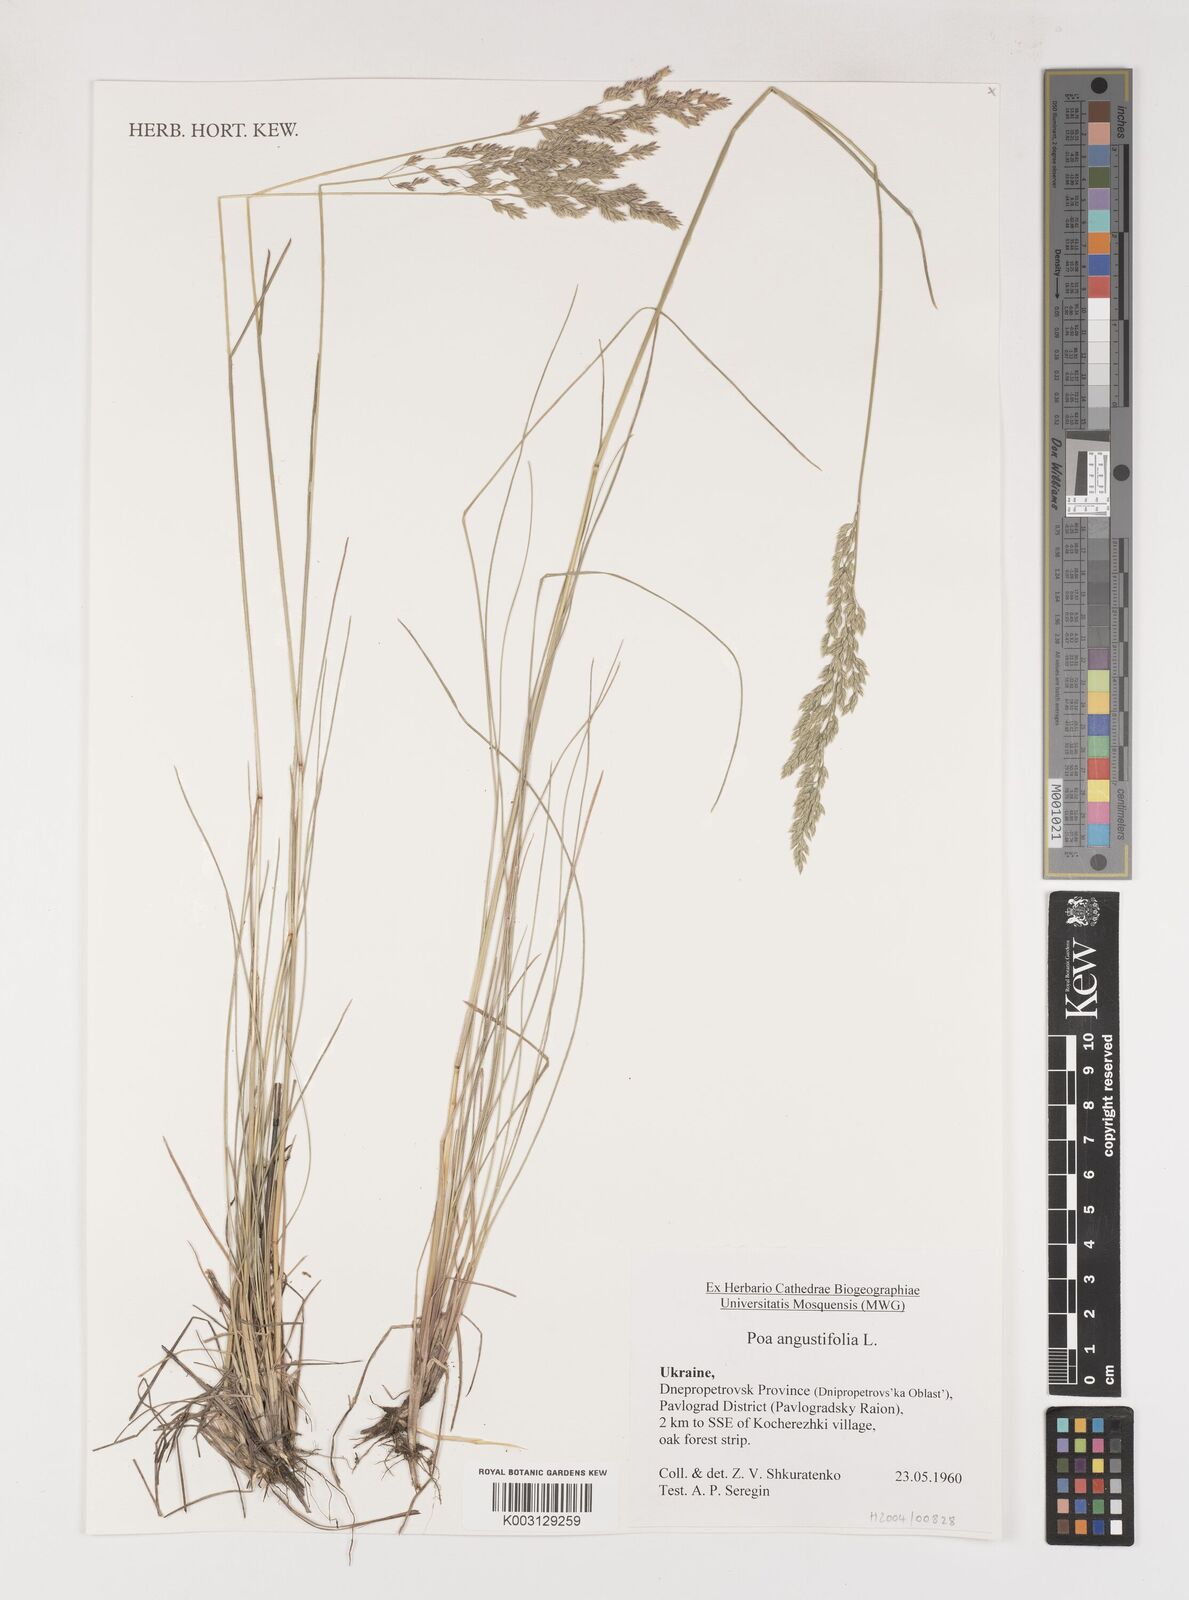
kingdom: Plantae
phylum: Tracheophyta
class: Liliopsida
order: Poales
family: Poaceae
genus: Poa
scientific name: Poa angustifolia
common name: Narrow-leaved meadow-grass
